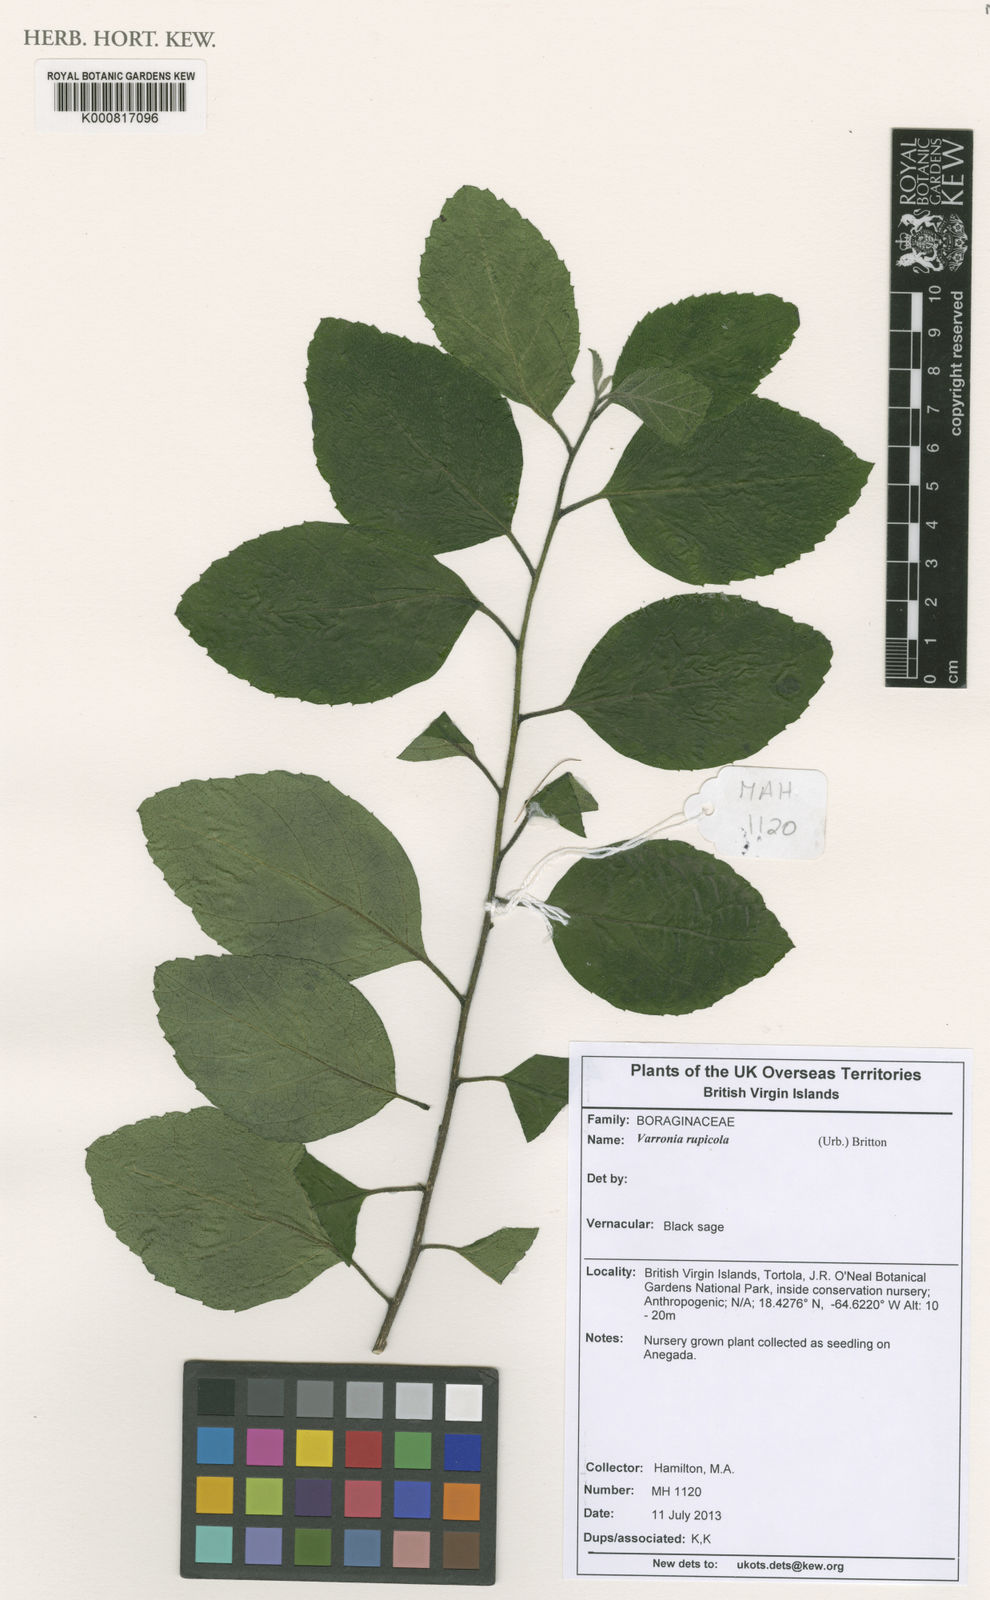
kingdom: Plantae
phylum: Tracheophyta
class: Magnoliopsida
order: Boraginales
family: Cordiaceae
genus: Varronia
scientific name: Varronia rupicola
